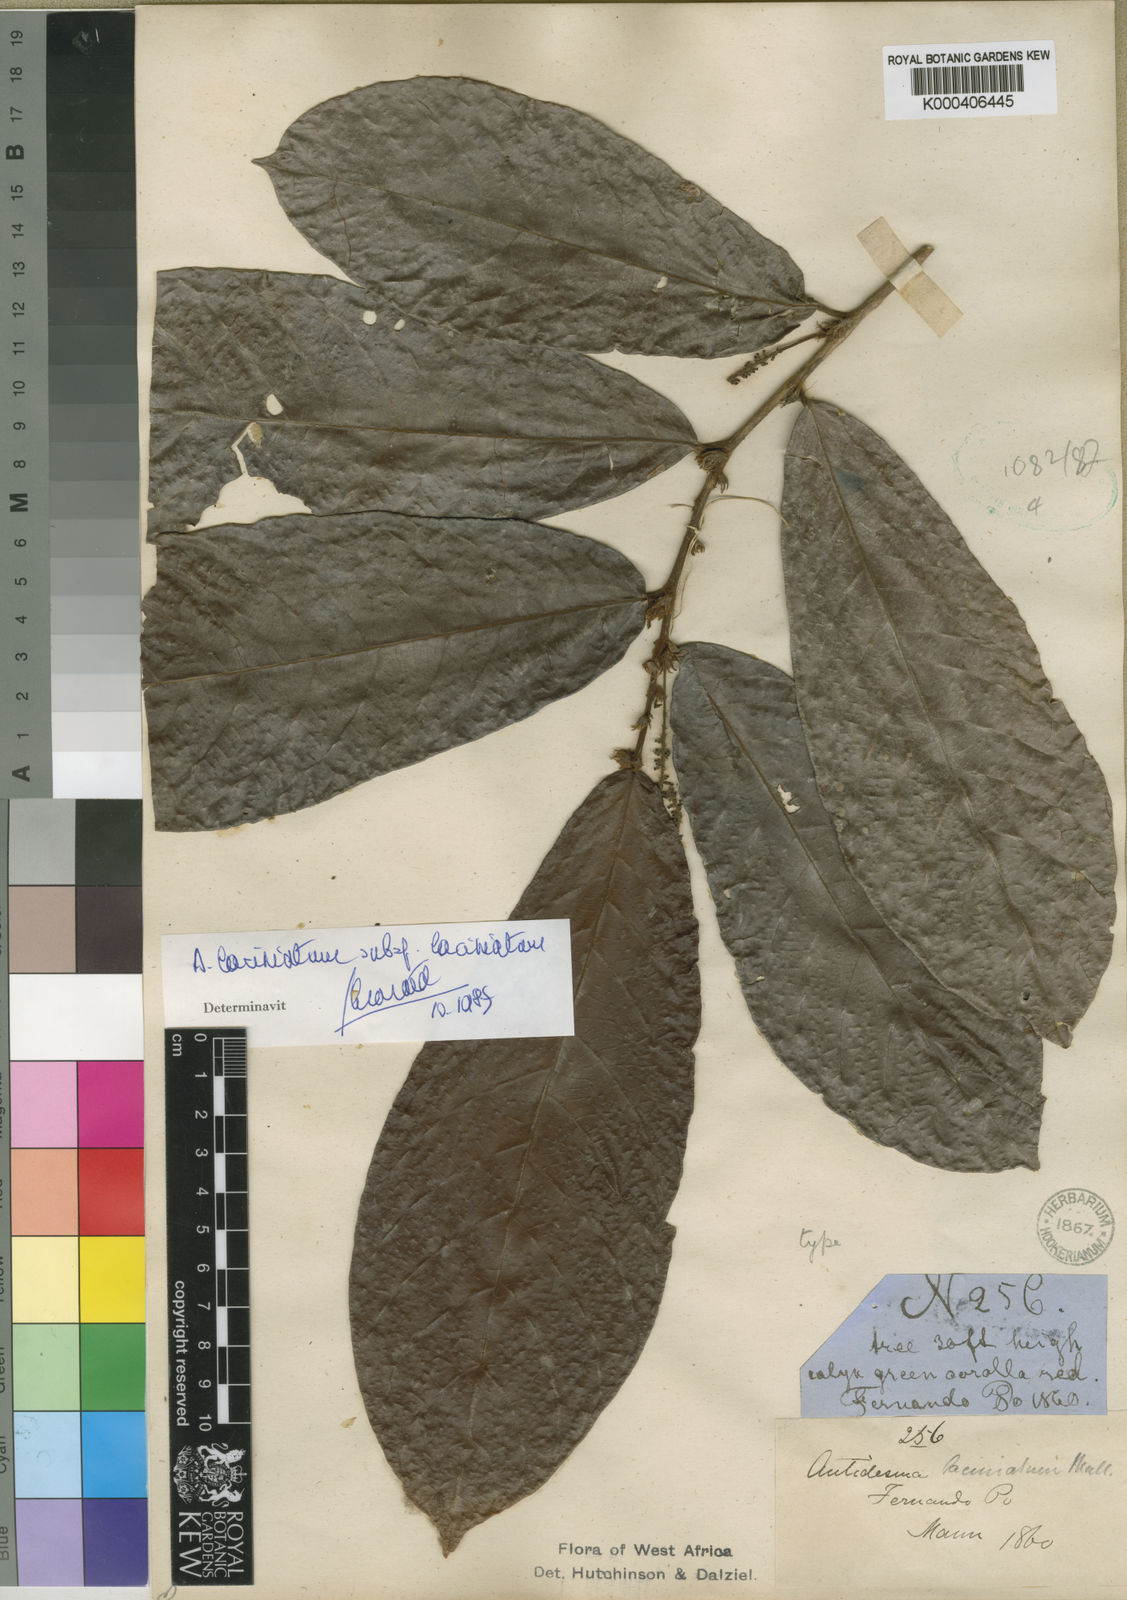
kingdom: Plantae
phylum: Tracheophyta
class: Magnoliopsida
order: Malpighiales
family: Phyllanthaceae
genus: Antidesma
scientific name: Antidesma
